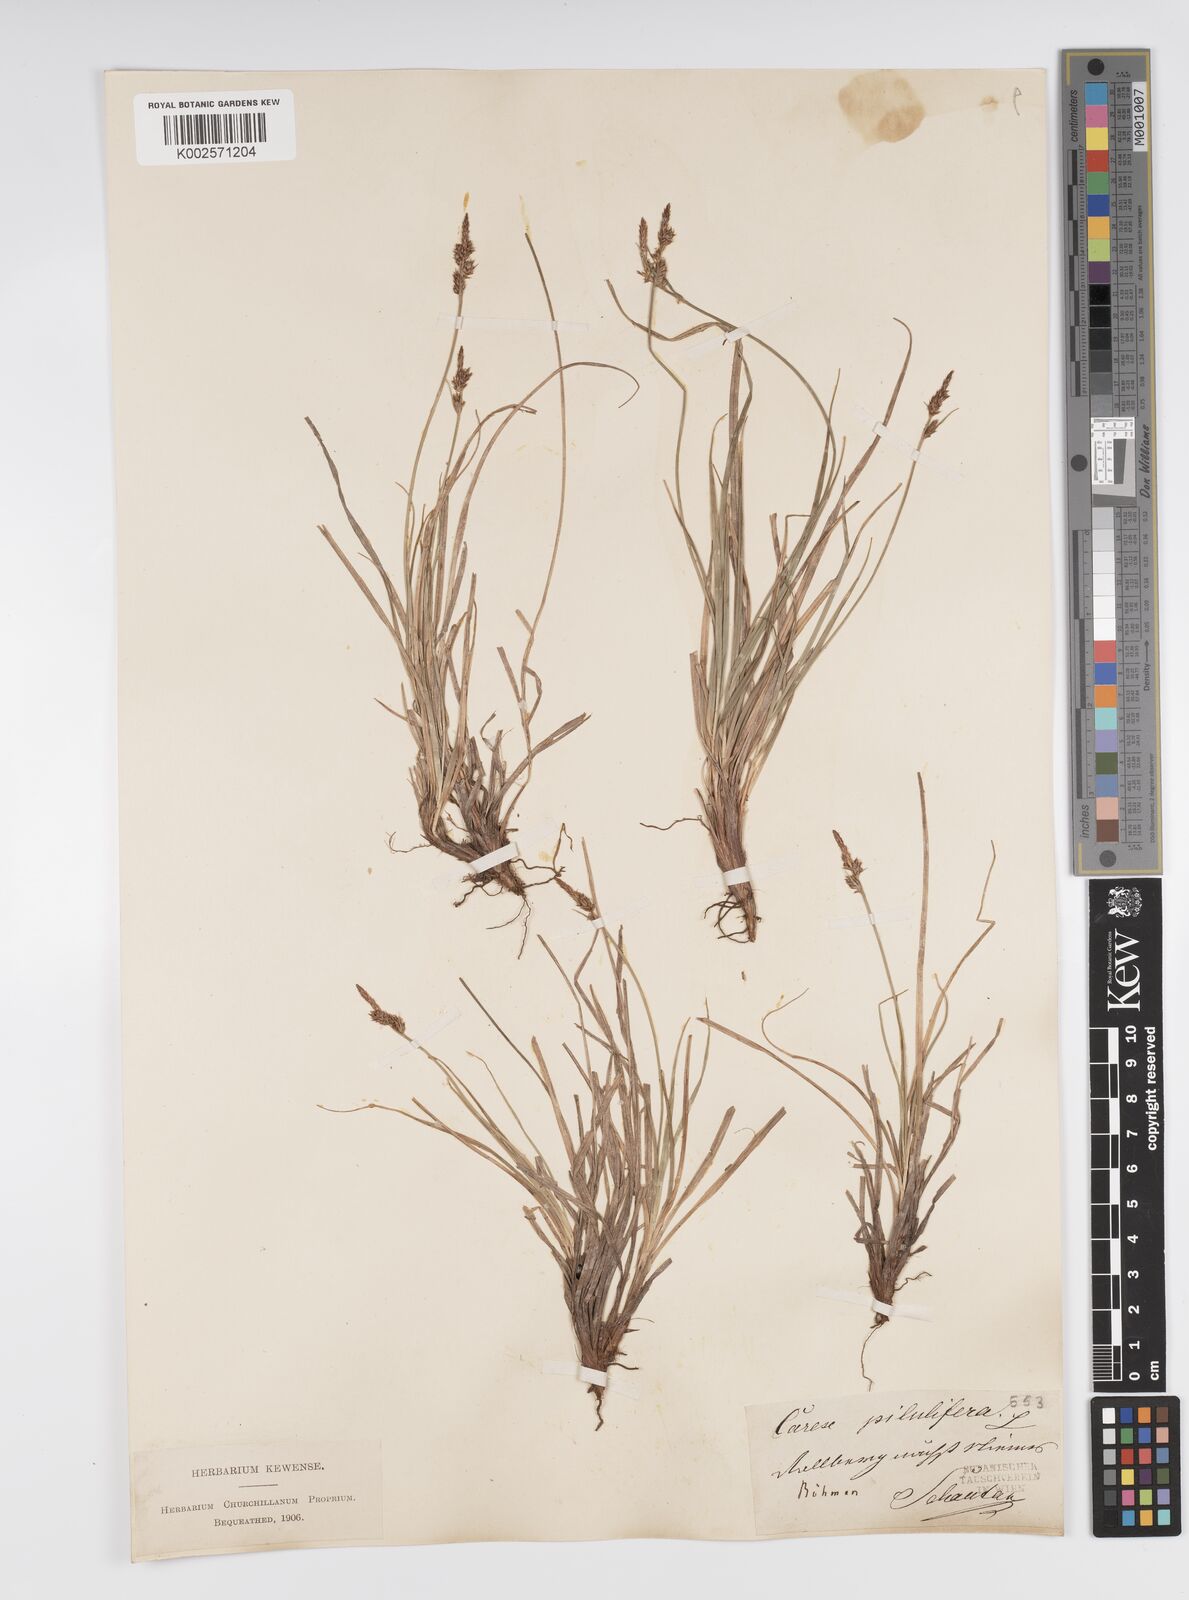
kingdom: Plantae
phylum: Tracheophyta
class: Liliopsida
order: Poales
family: Cyperaceae
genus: Carex
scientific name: Carex pilulifera
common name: Pill sedge
